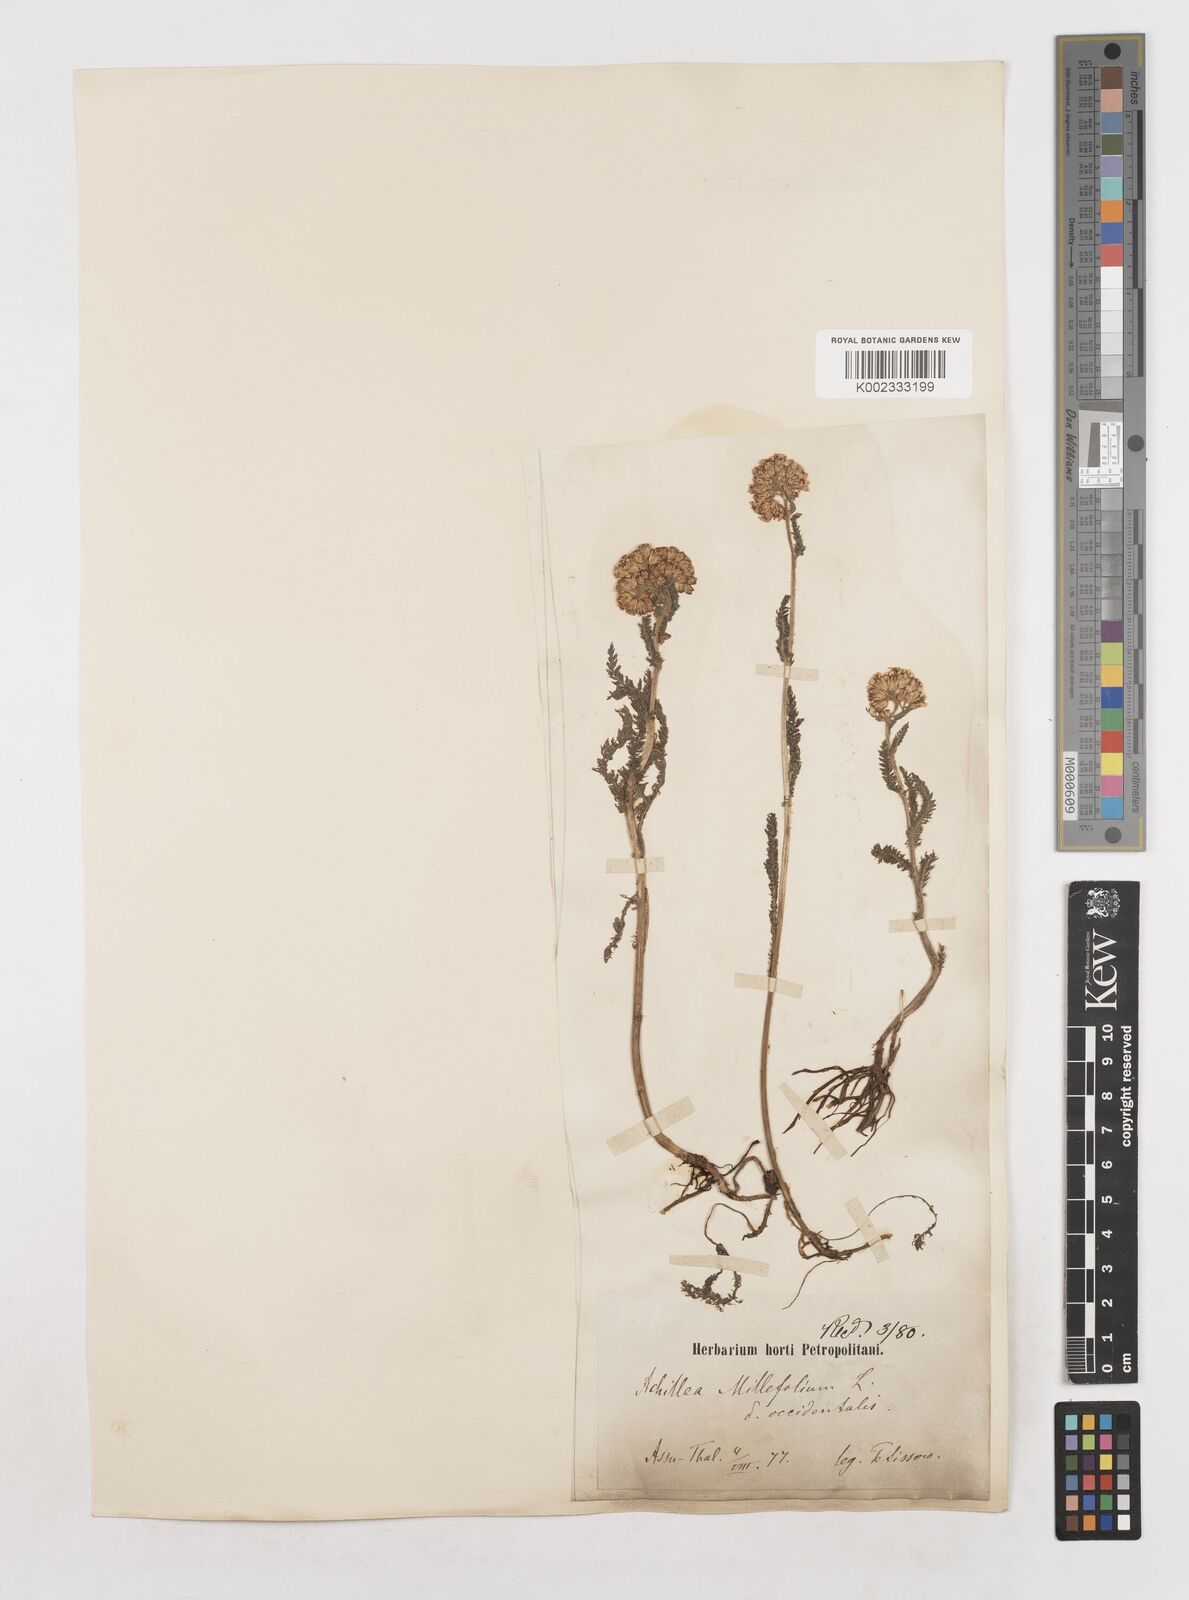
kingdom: Plantae
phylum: Tracheophyta
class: Magnoliopsida
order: Asterales
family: Asteraceae
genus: Achillea
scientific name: Achillea millefolium
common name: Yarrow
